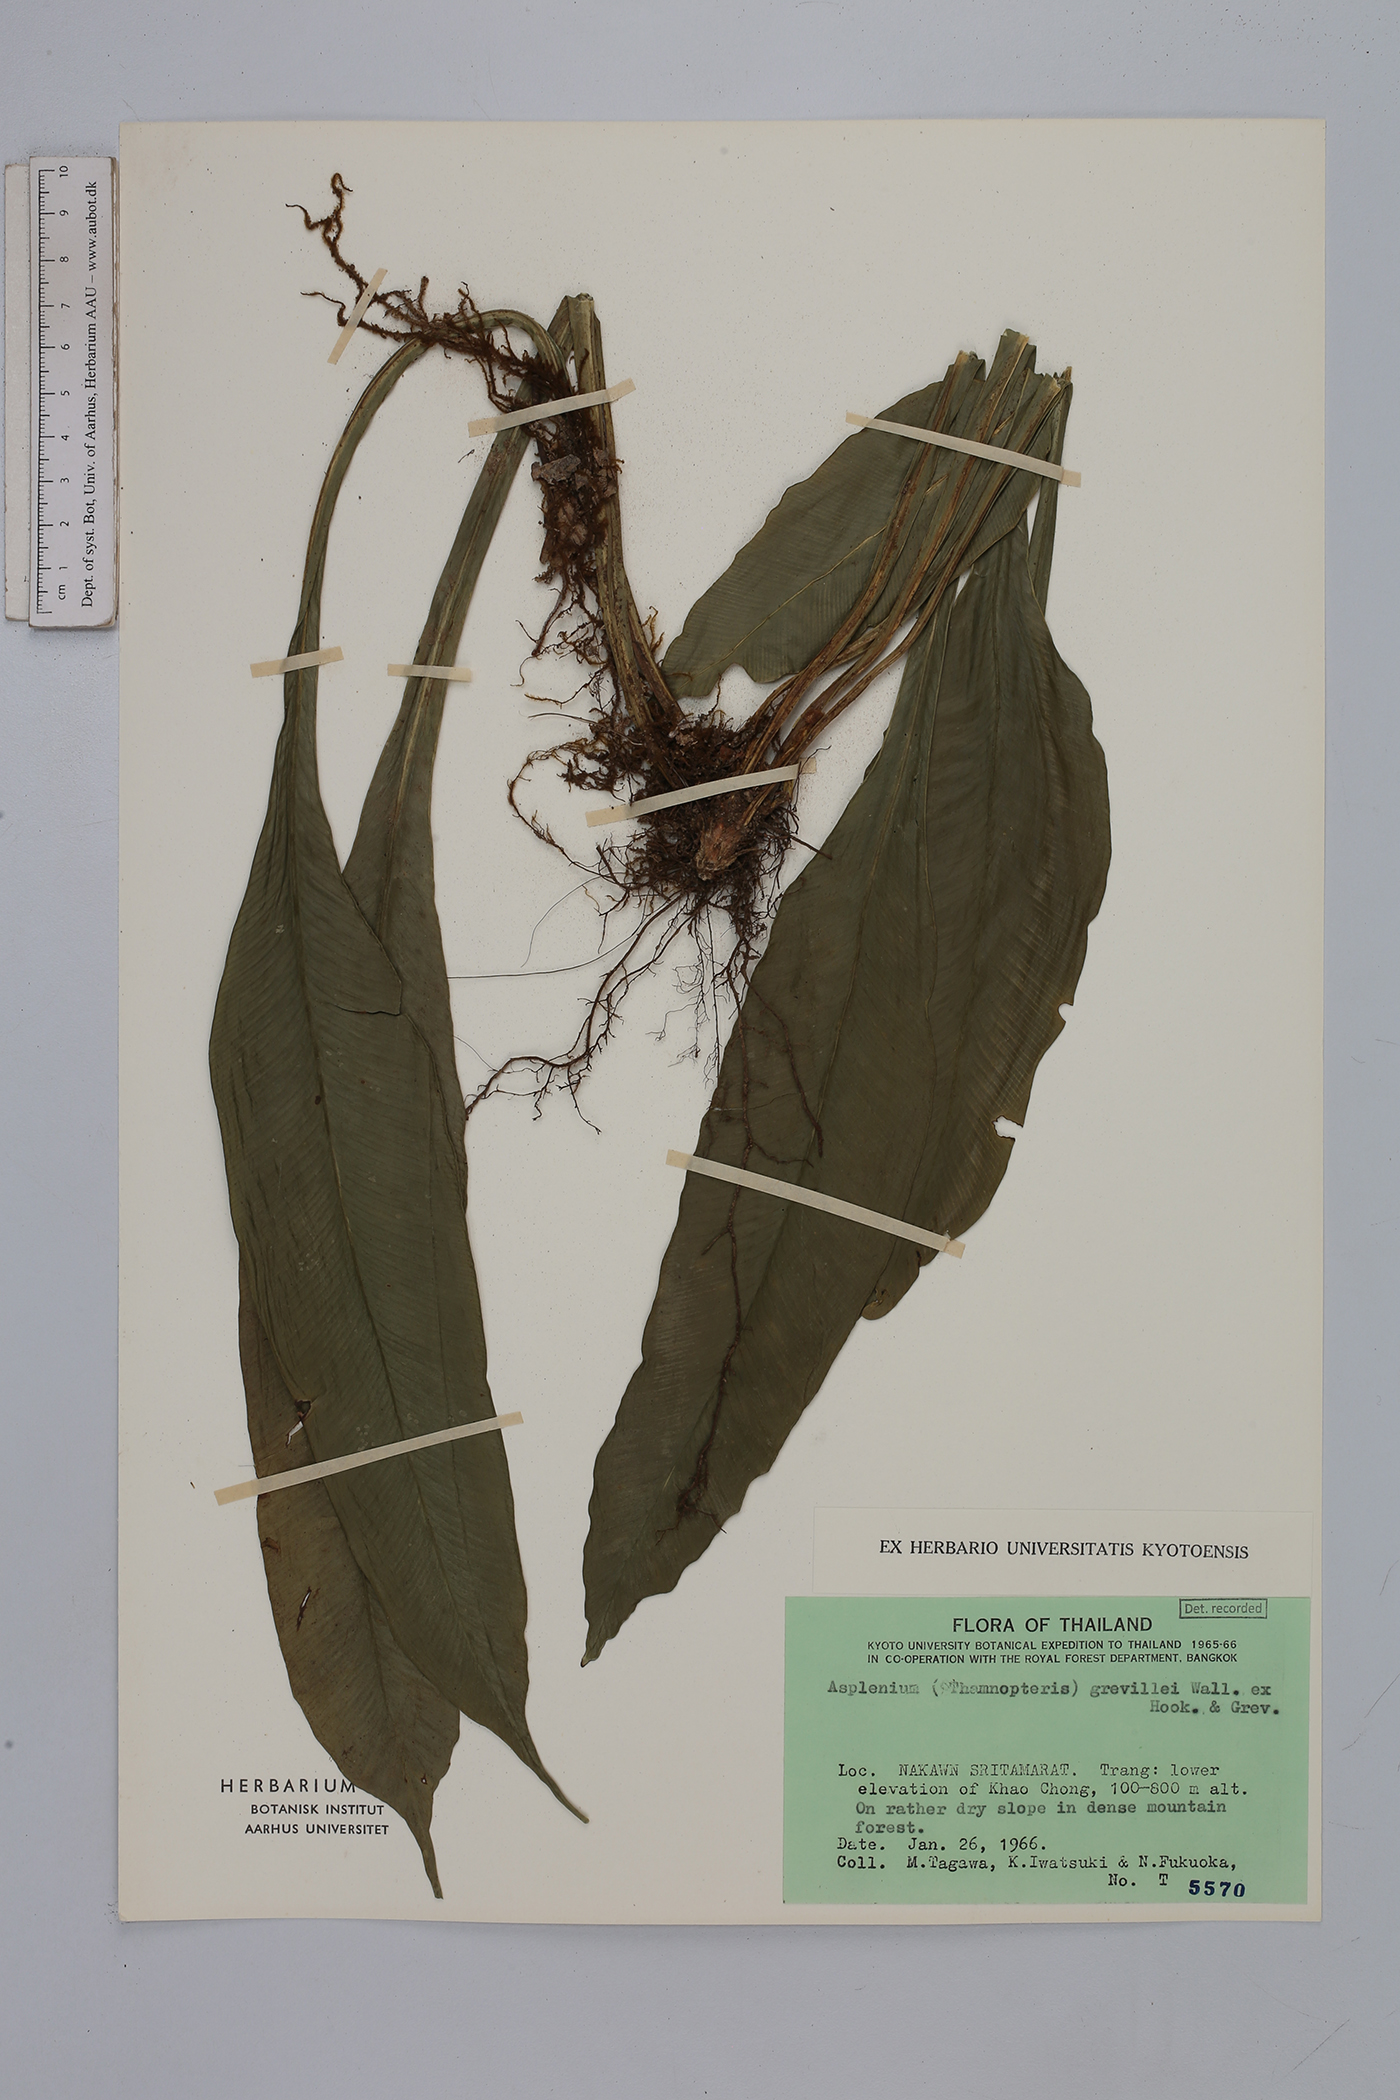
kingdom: Plantae
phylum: Tracheophyta
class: Polypodiopsida
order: Polypodiales
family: Aspleniaceae
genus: Asplenium
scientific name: Asplenium grevillei
